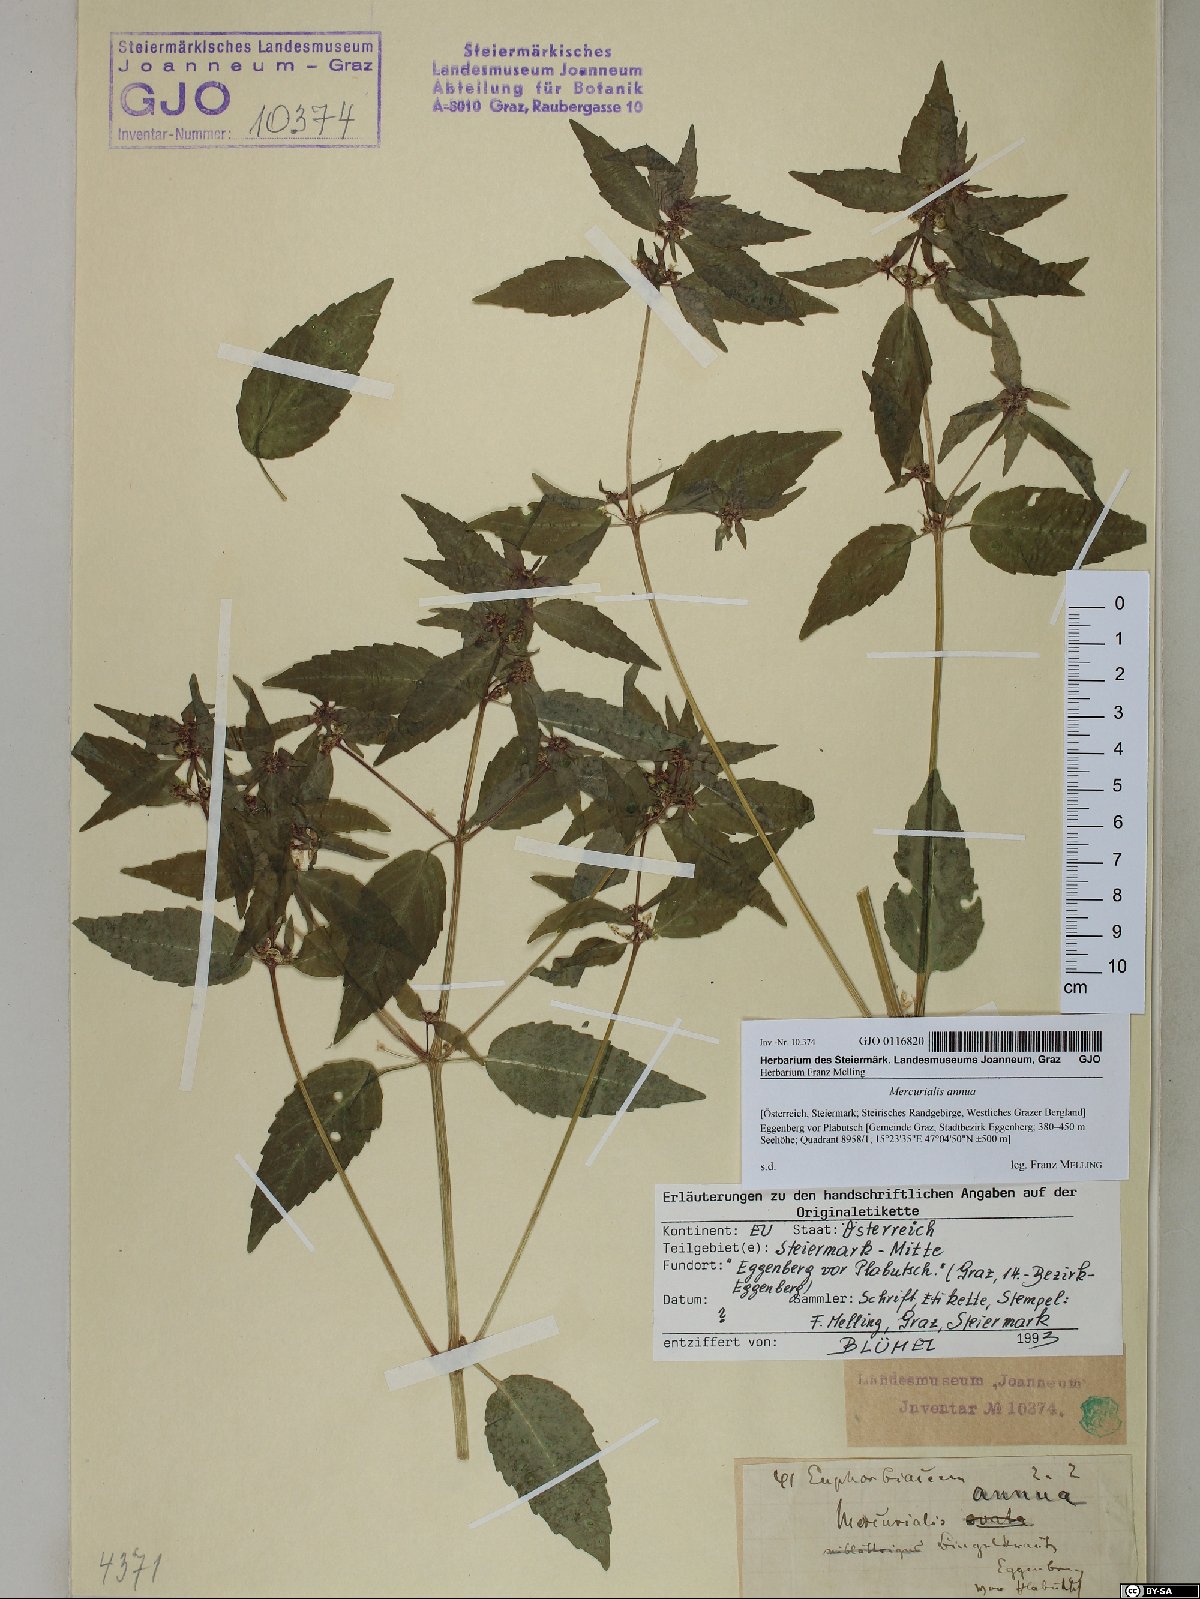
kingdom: Plantae
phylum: Tracheophyta
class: Magnoliopsida
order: Malpighiales
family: Euphorbiaceae
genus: Mercurialis
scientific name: Mercurialis annua
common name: Annual mercury
